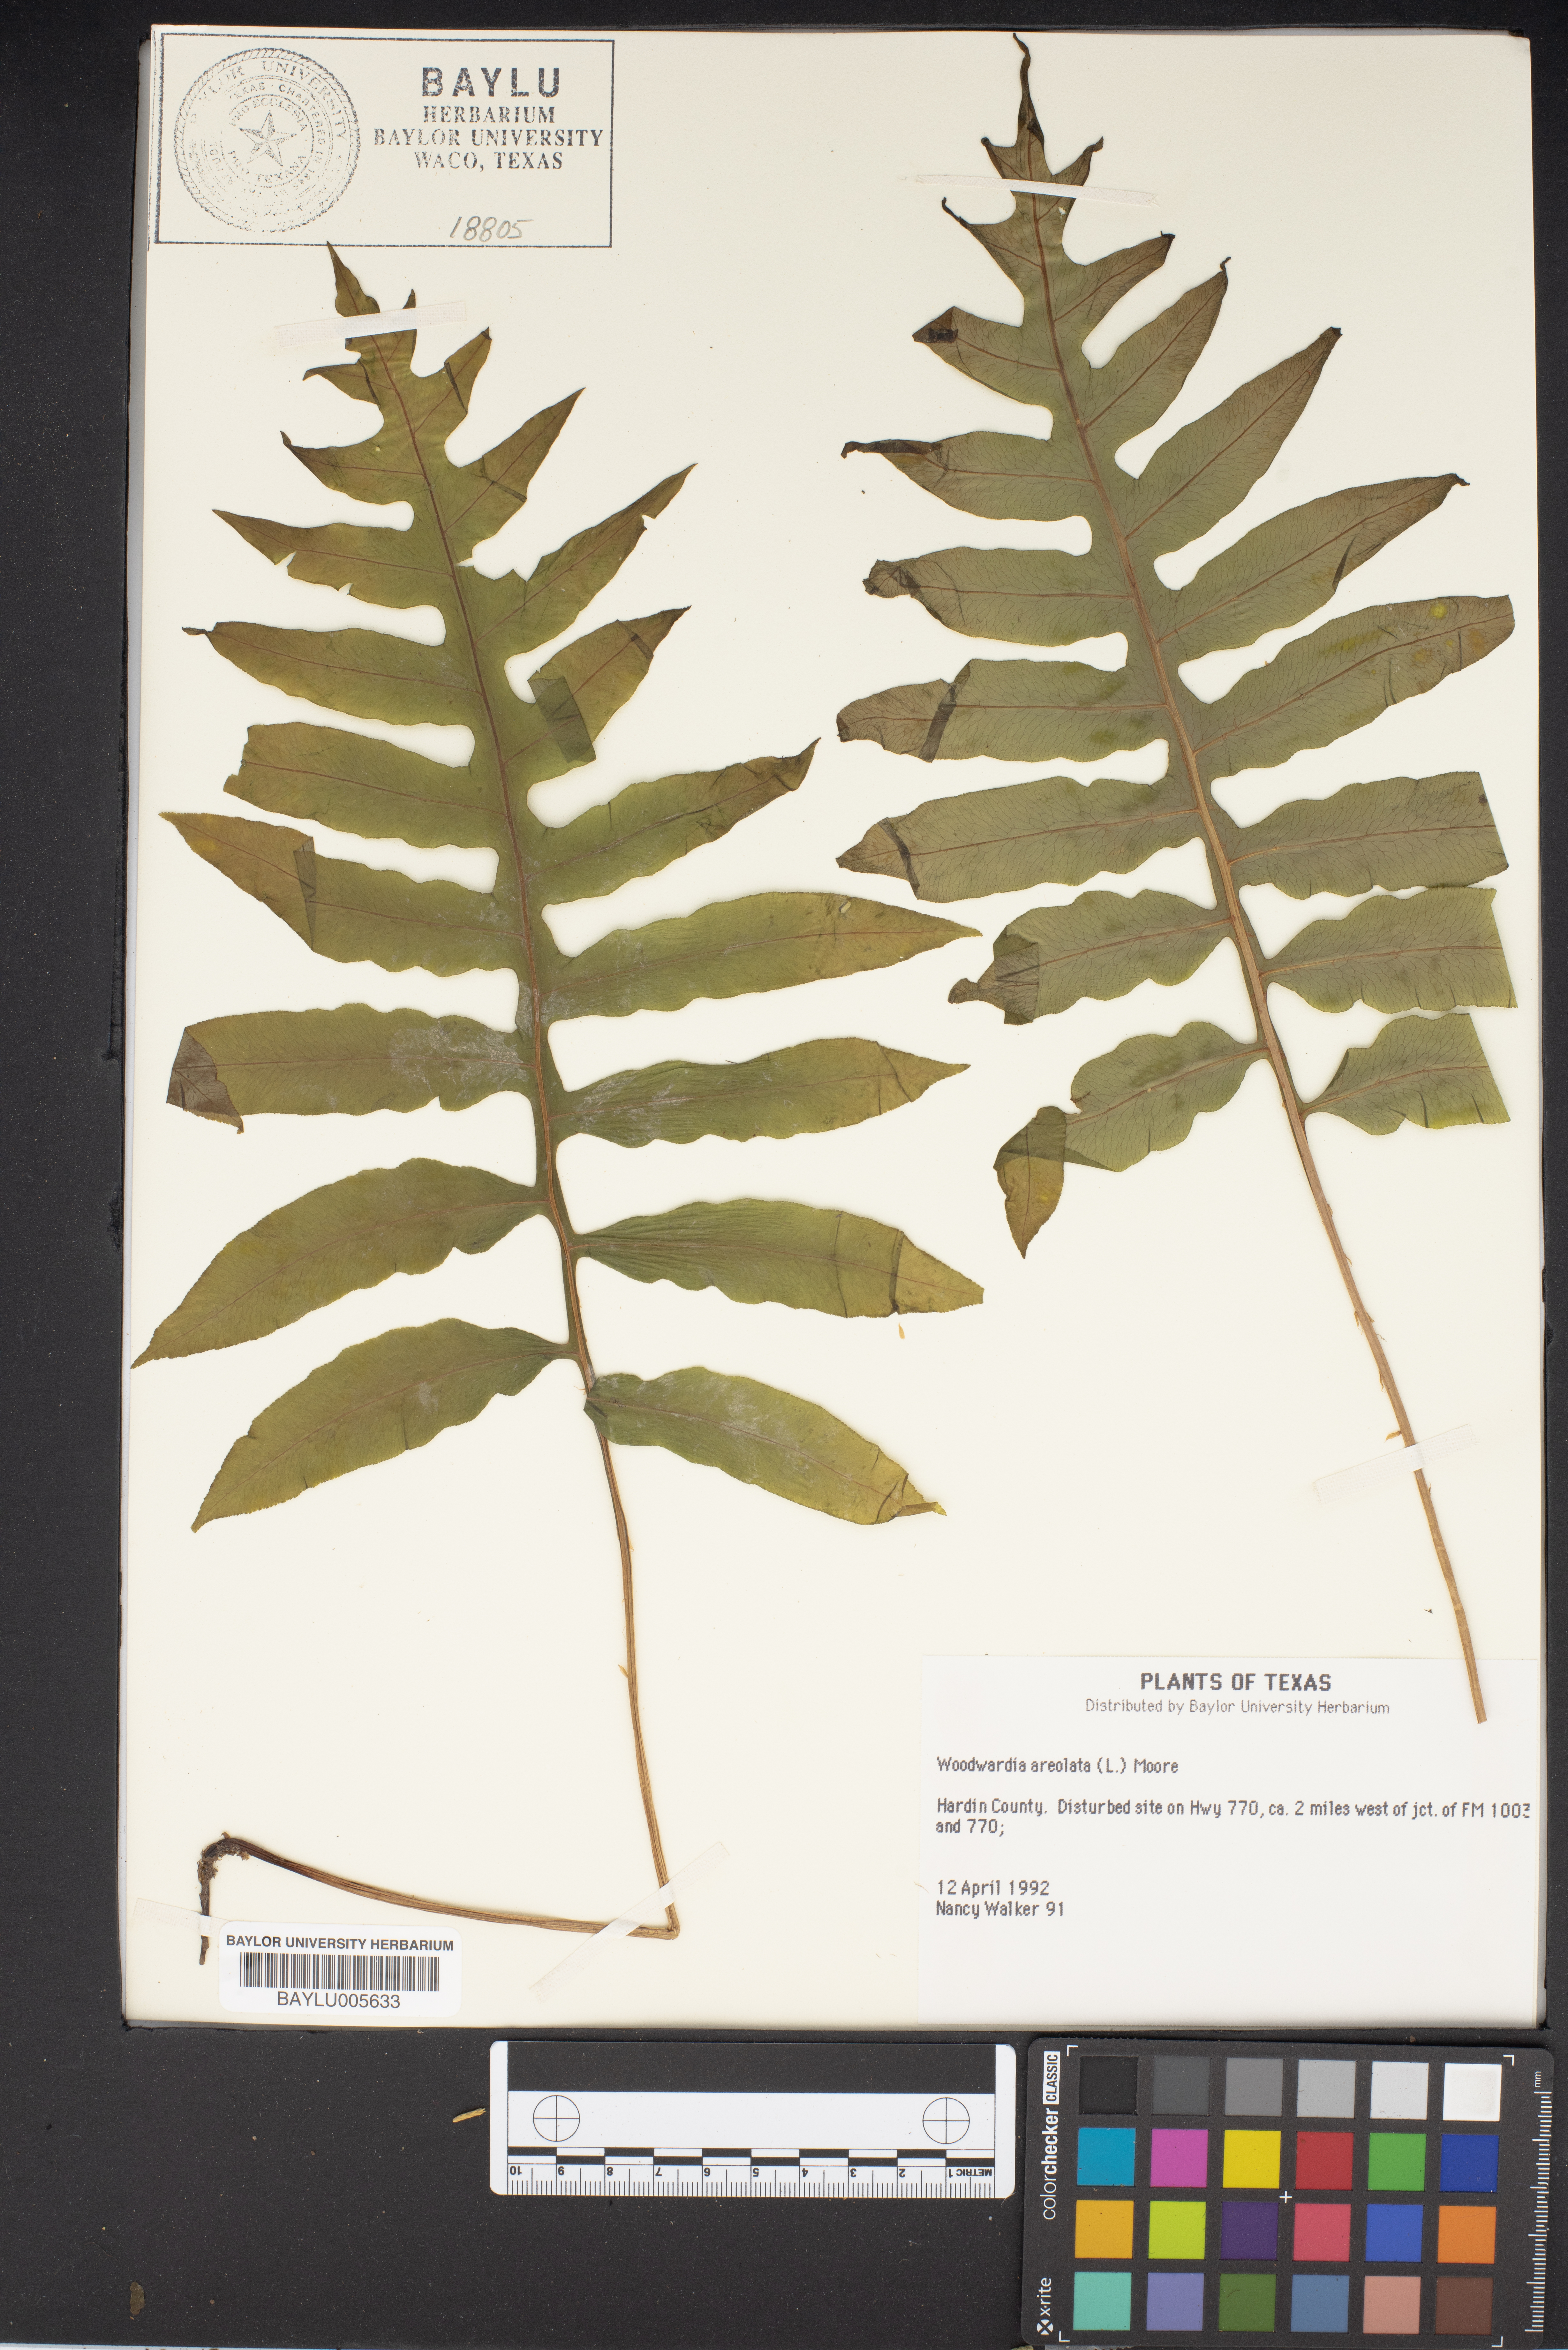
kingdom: Plantae
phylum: Tracheophyta
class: Polypodiopsida
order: Polypodiales
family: Blechnaceae
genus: Lorinseria
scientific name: Lorinseria areolata
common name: Dwarf chain fern
